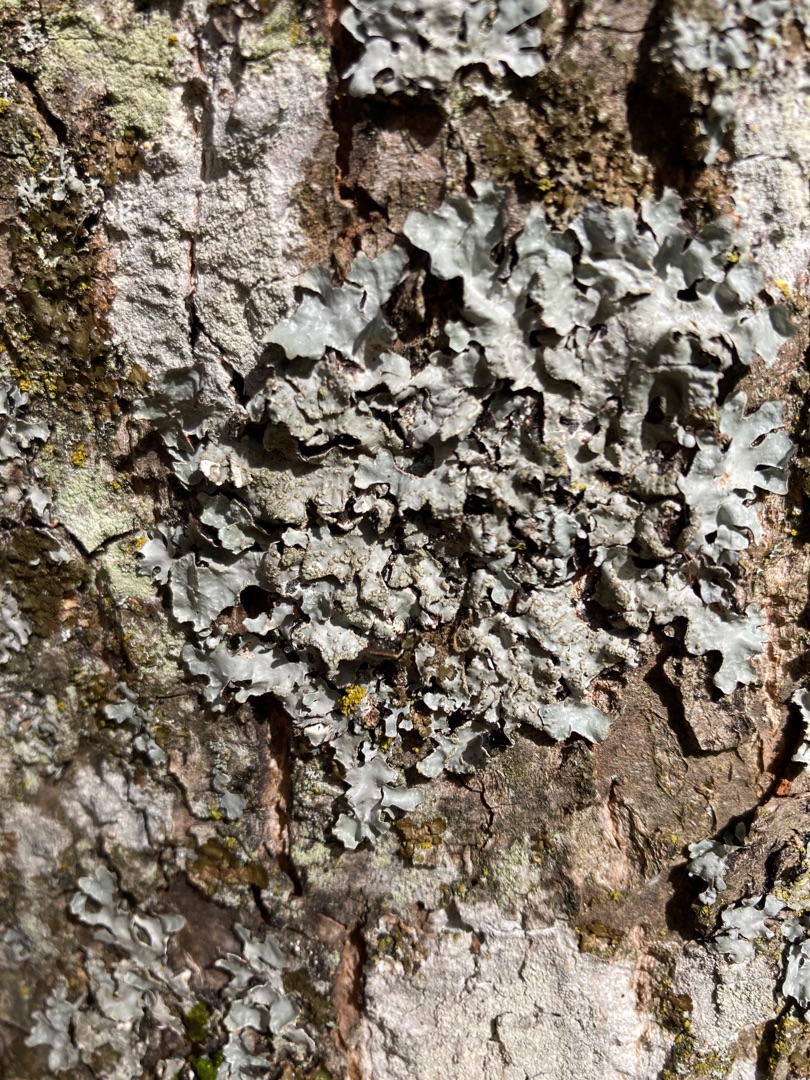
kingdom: Fungi
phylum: Ascomycota
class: Lecanoromycetes
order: Lecanorales
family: Parmeliaceae
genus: Parmelia
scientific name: Parmelia sulcata
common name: Rynket skållav
